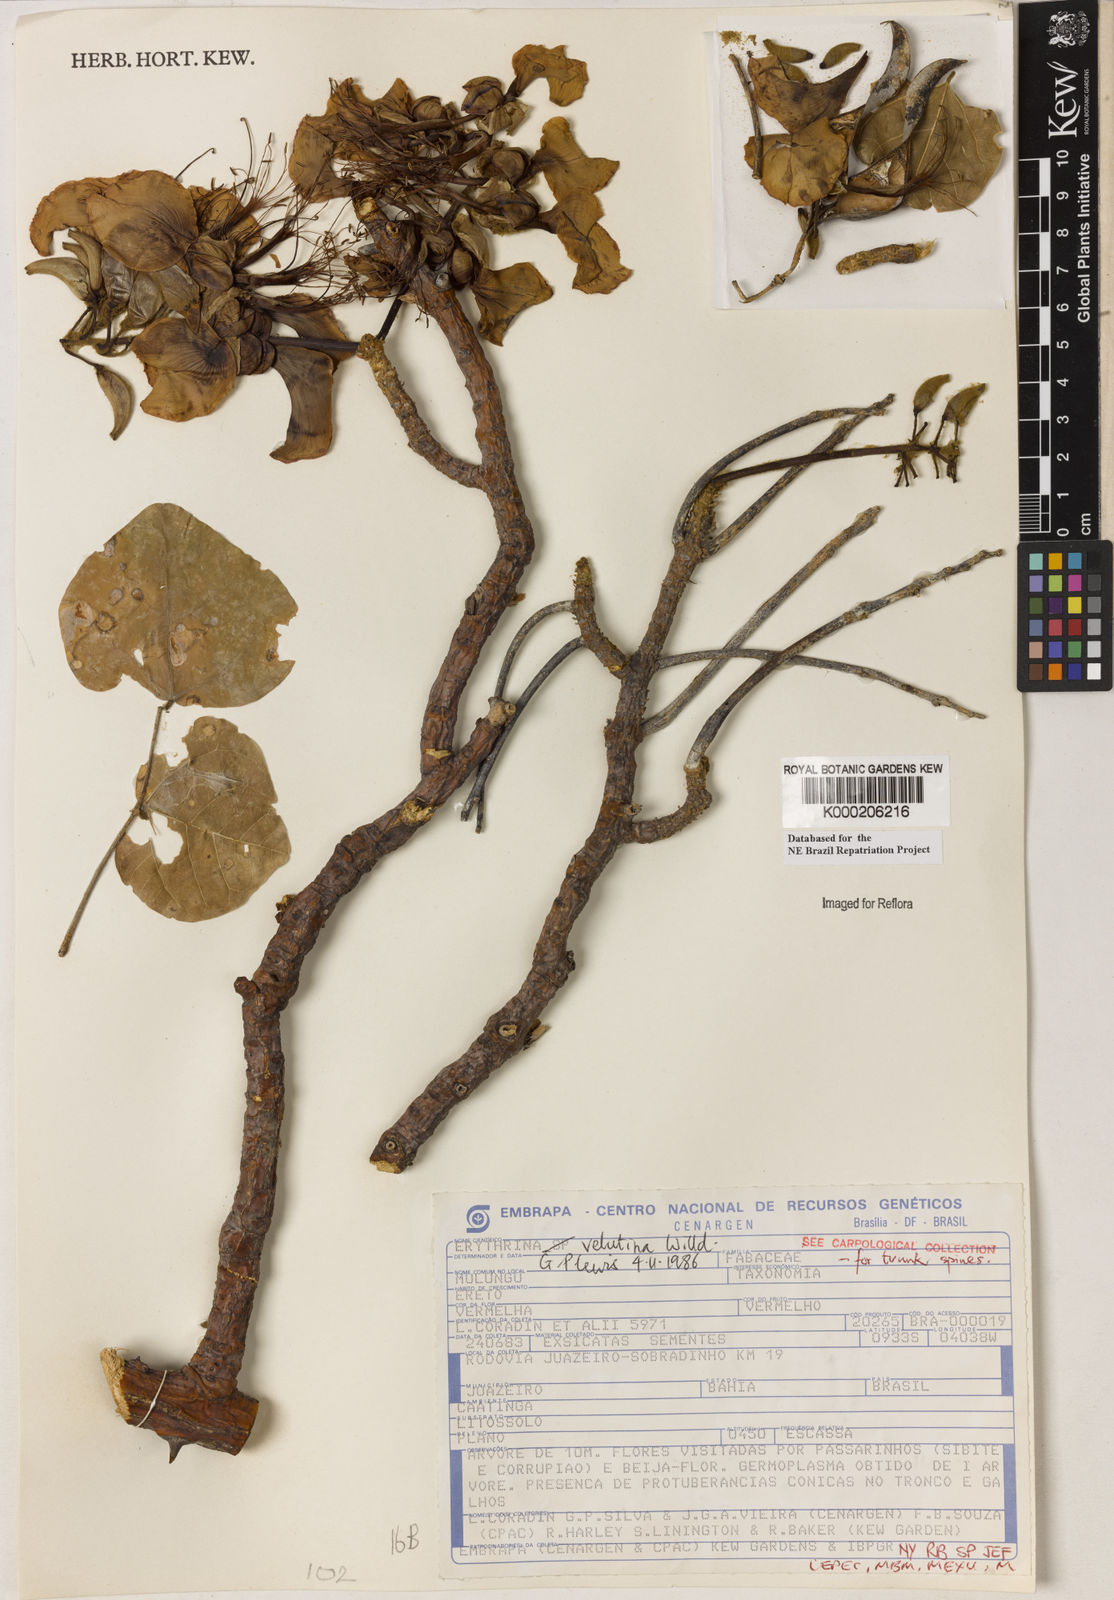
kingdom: Plantae
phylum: Tracheophyta
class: Magnoliopsida
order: Fabales
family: Fabaceae
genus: Erythrina
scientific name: Erythrina velutina
